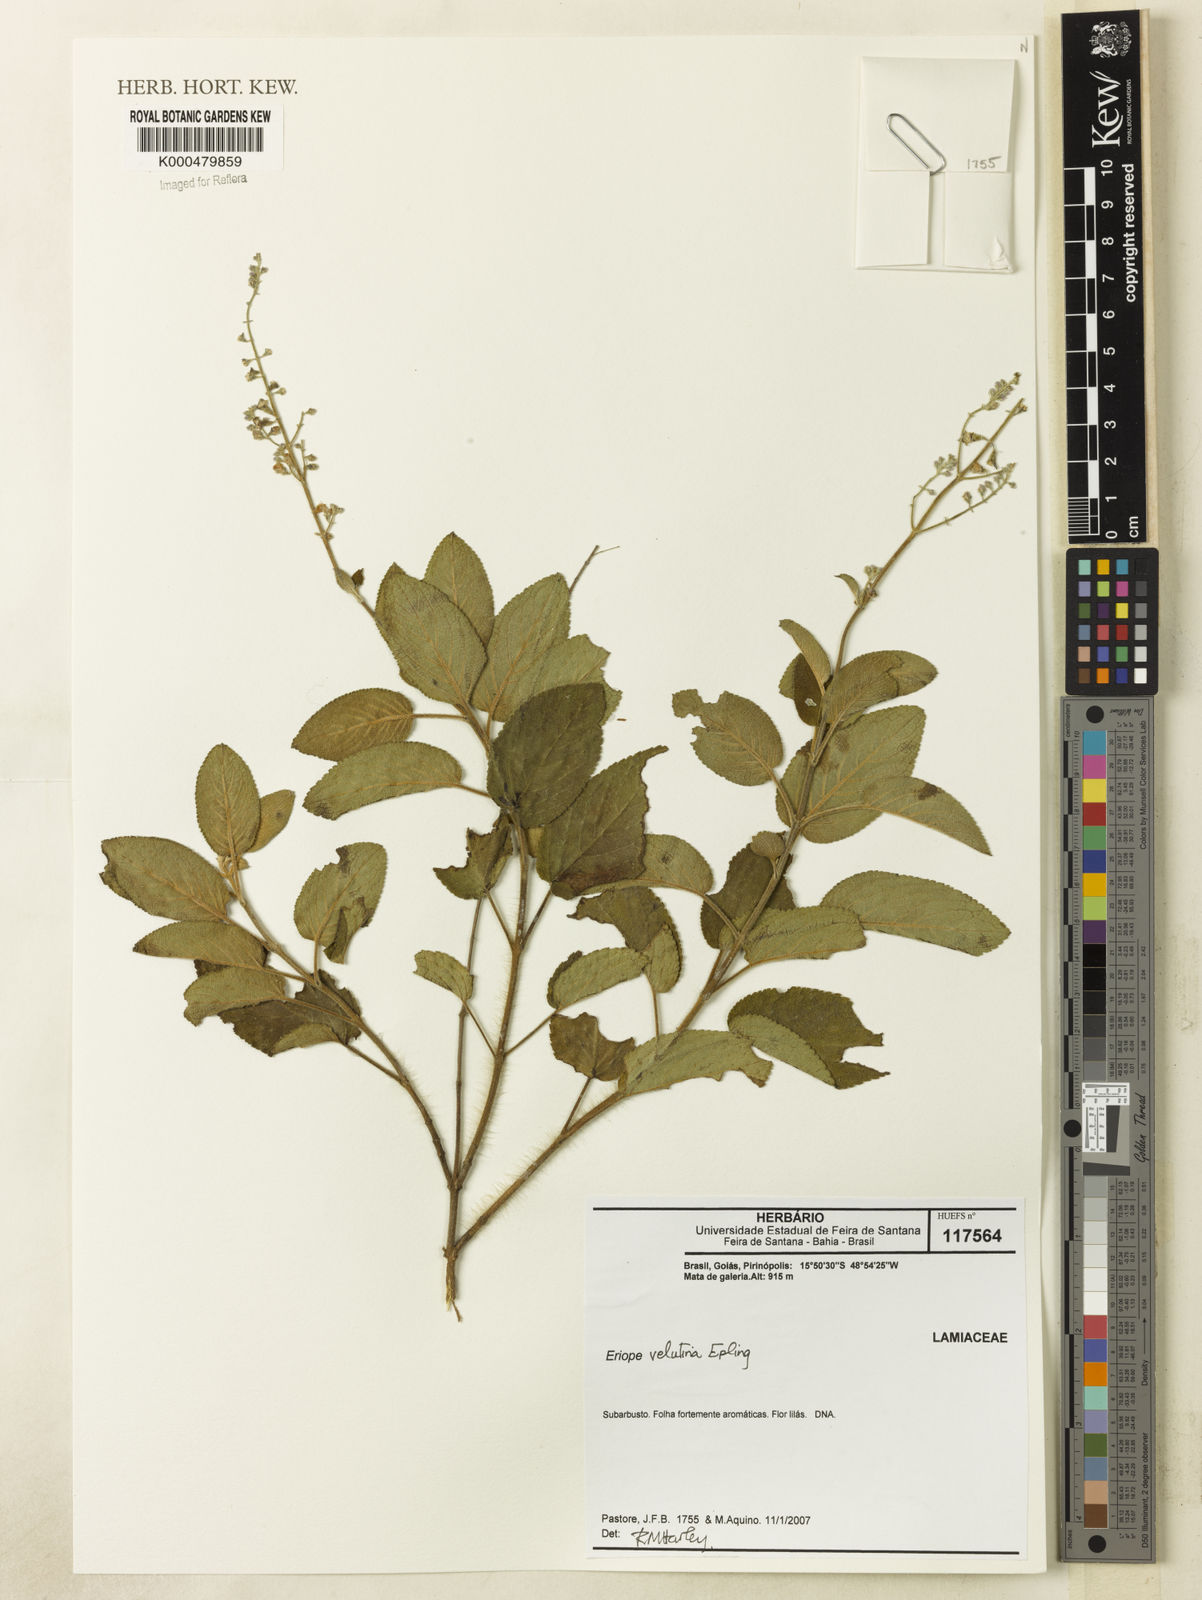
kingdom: Plantae
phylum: Tracheophyta
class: Magnoliopsida
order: Lamiales
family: Lamiaceae
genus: Eriope
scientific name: Eriope velutina
